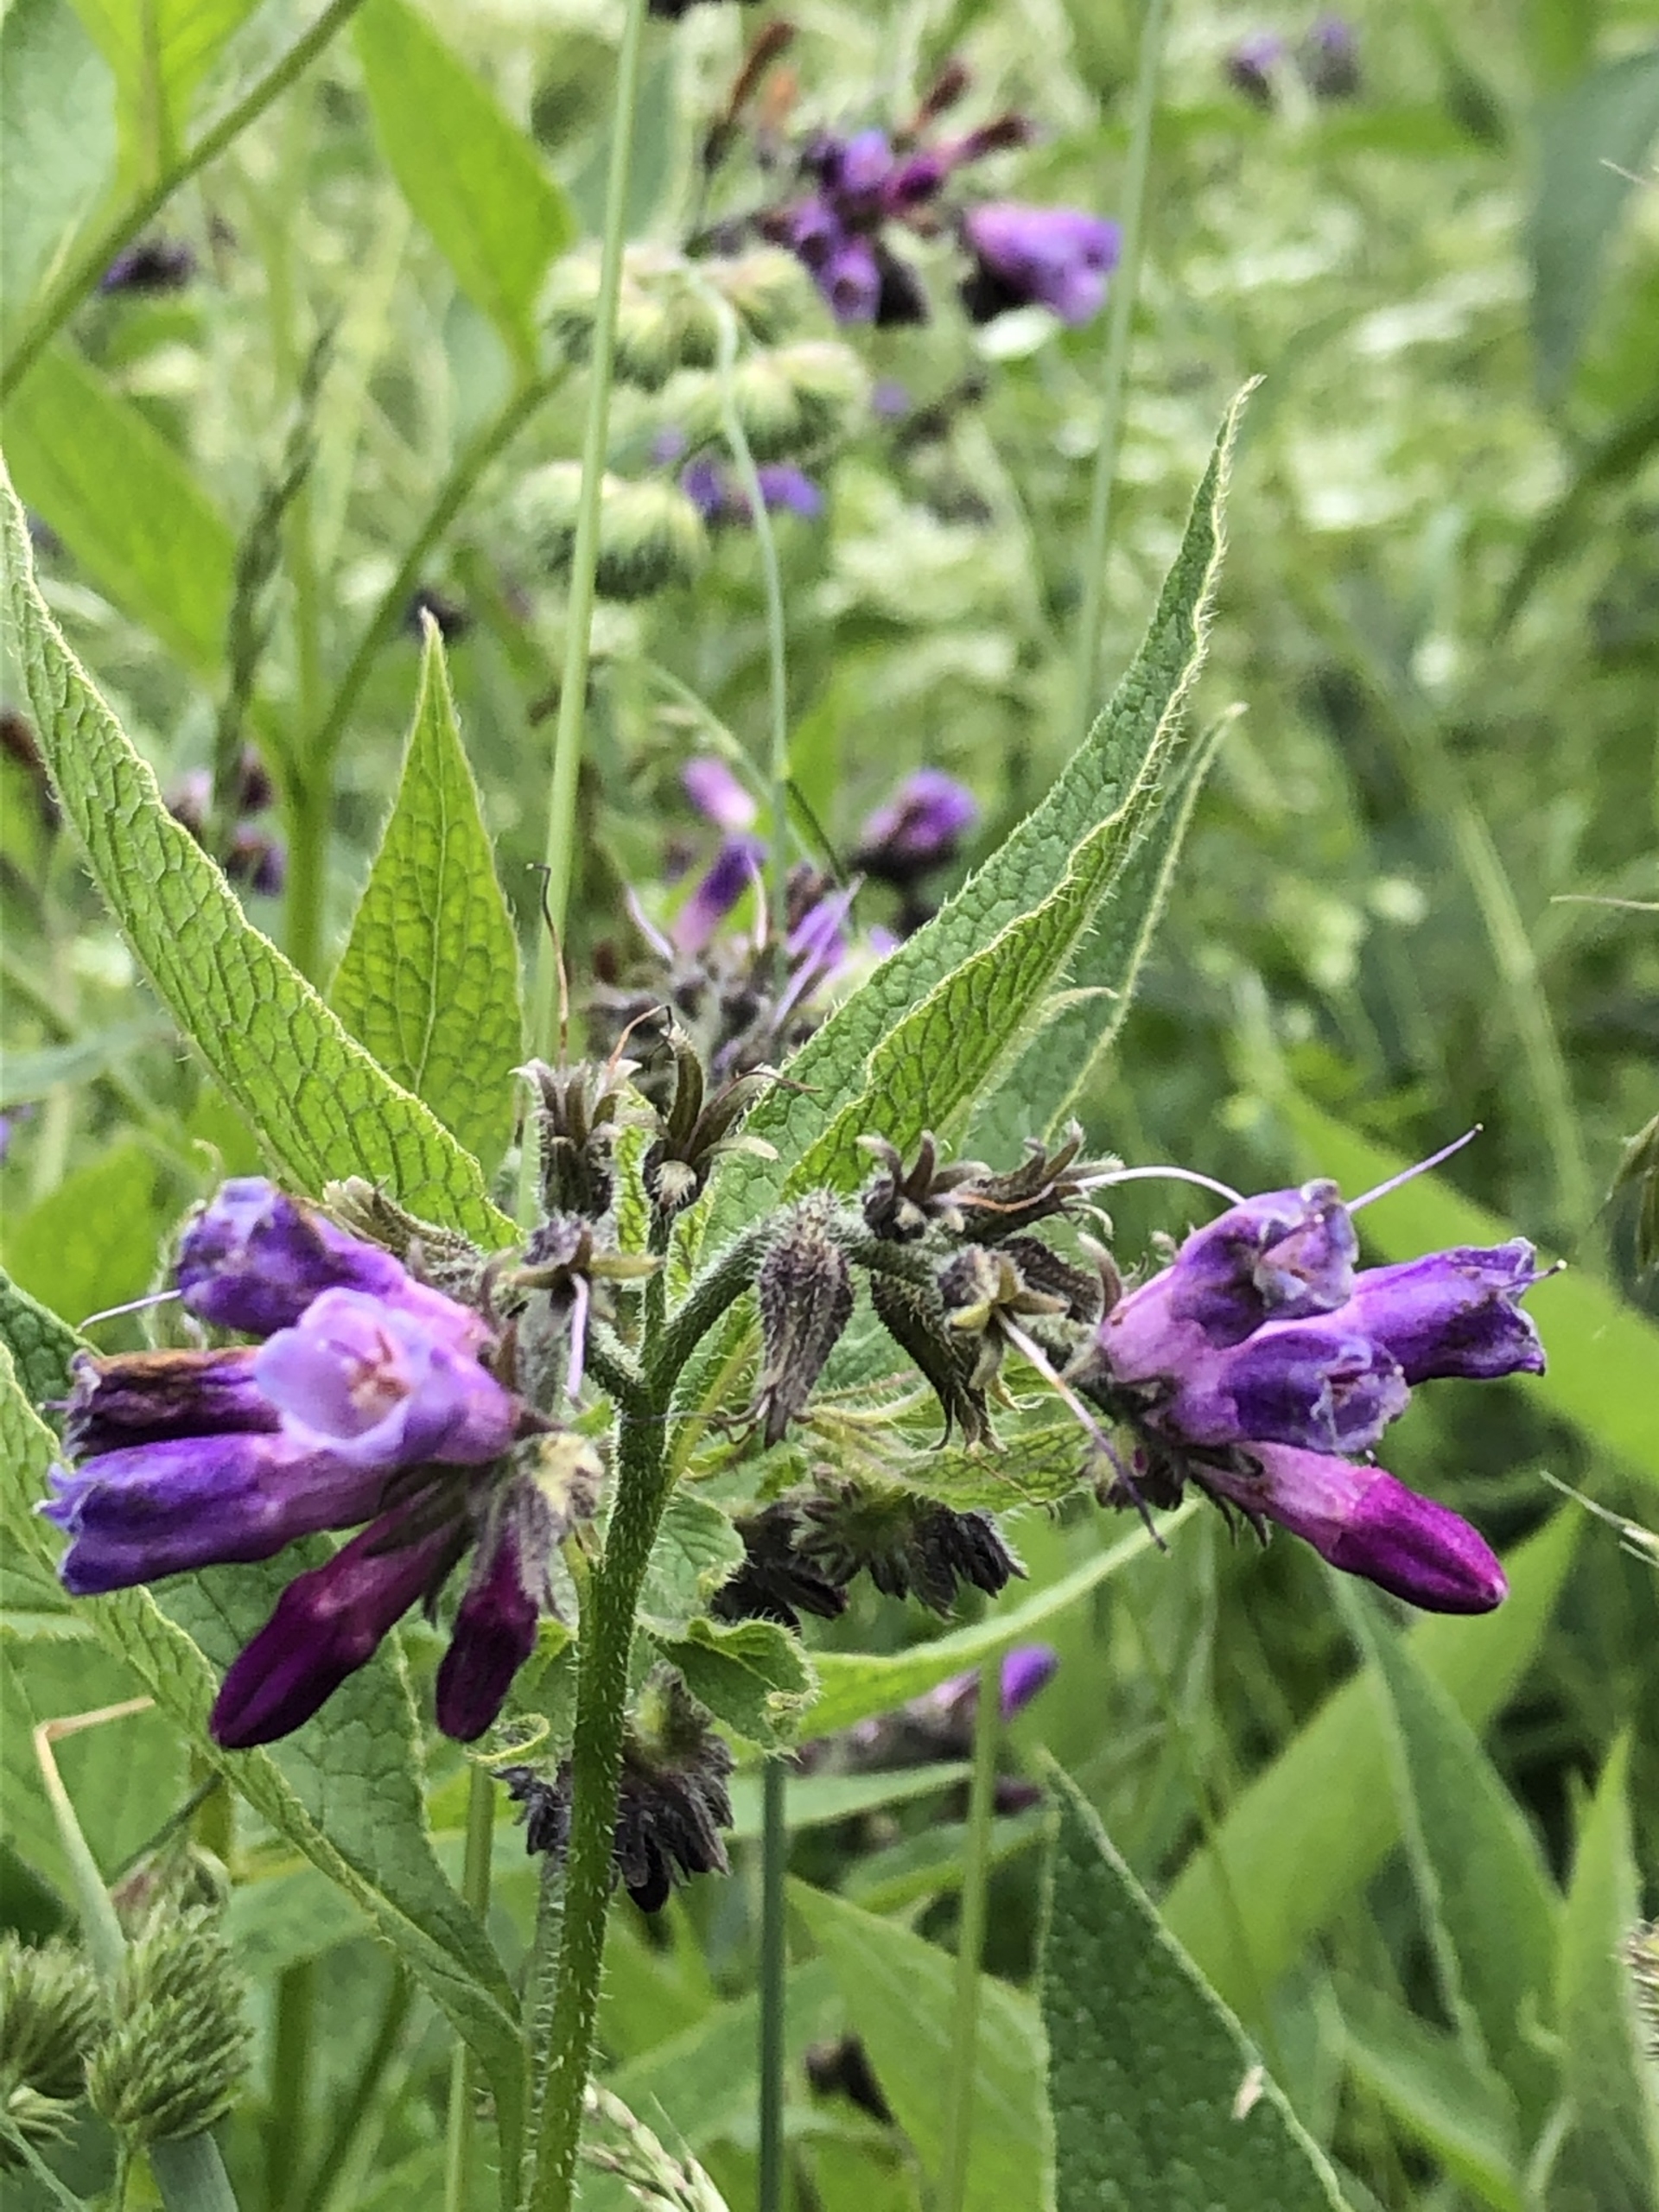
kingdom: Plantae
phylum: Tracheophyta
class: Magnoliopsida
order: Boraginales
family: Boraginaceae
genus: Symphytum
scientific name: Symphytum uplandicum
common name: Foder-kulsukker
